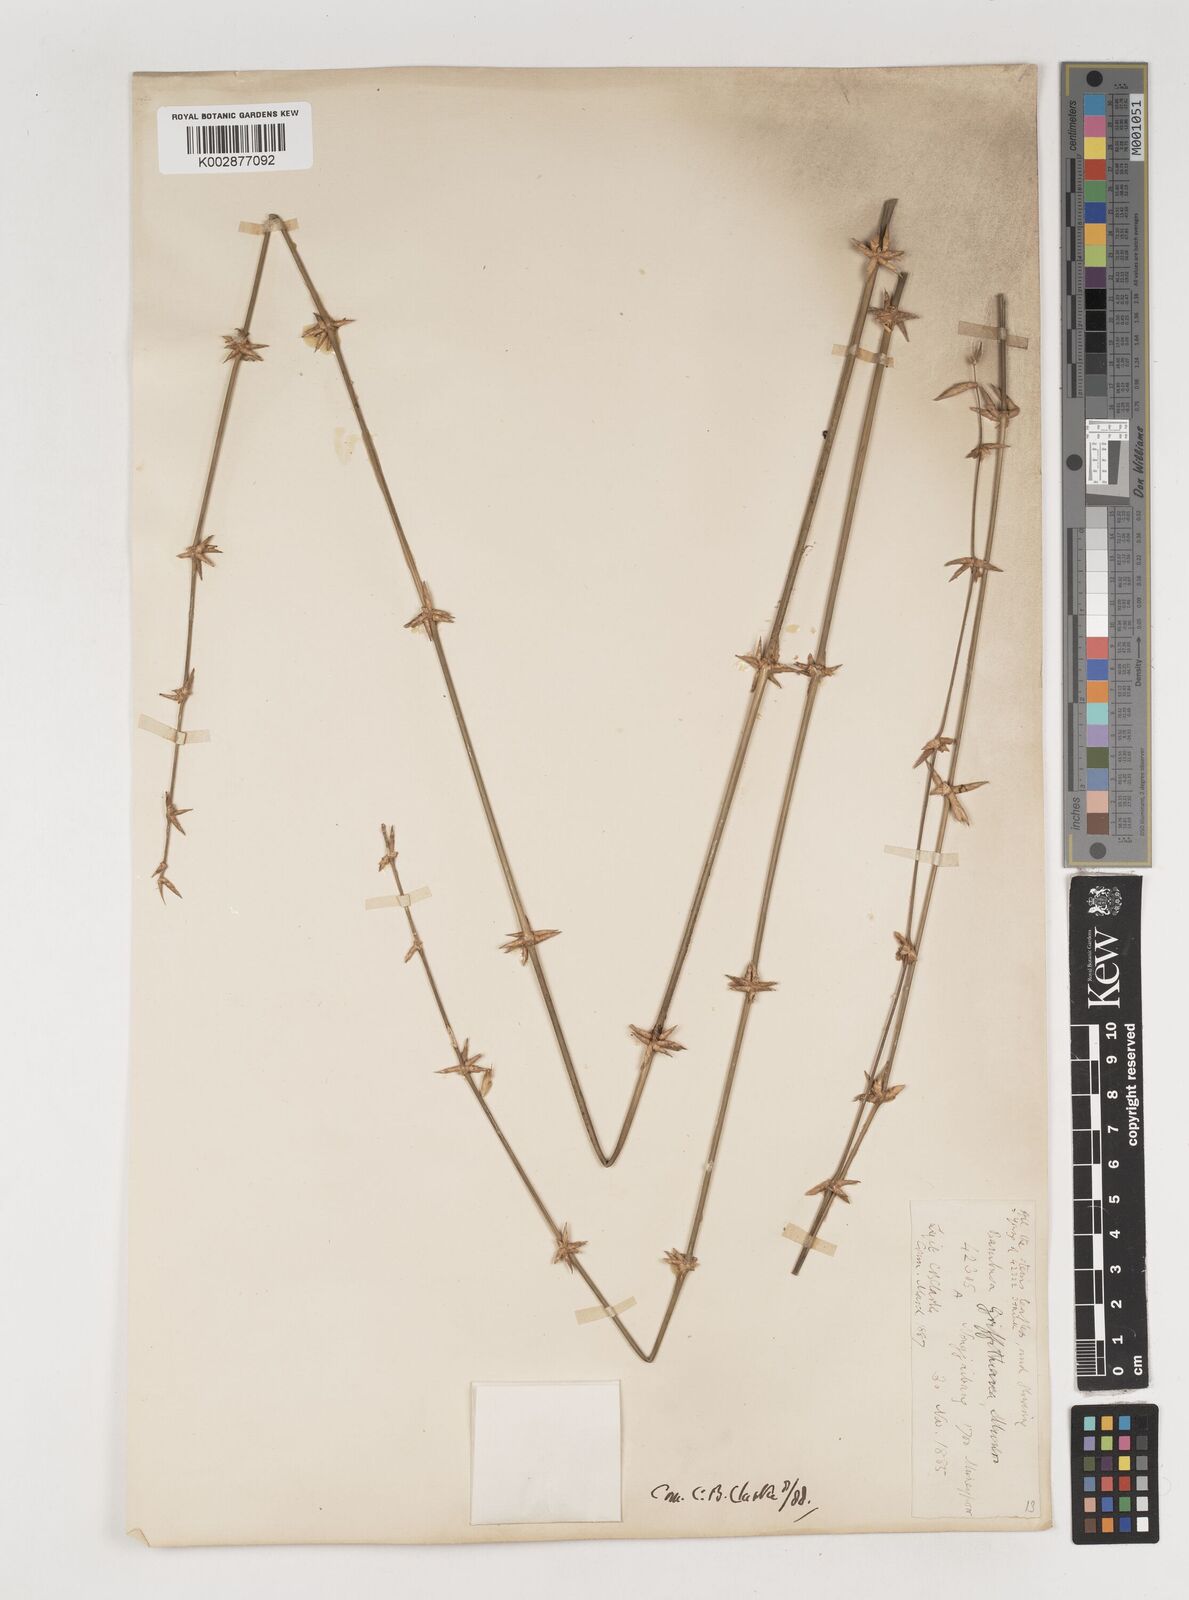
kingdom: Plantae
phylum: Tracheophyta
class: Liliopsida
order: Poales
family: Poaceae
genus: Bambusa
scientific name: Bambusa
